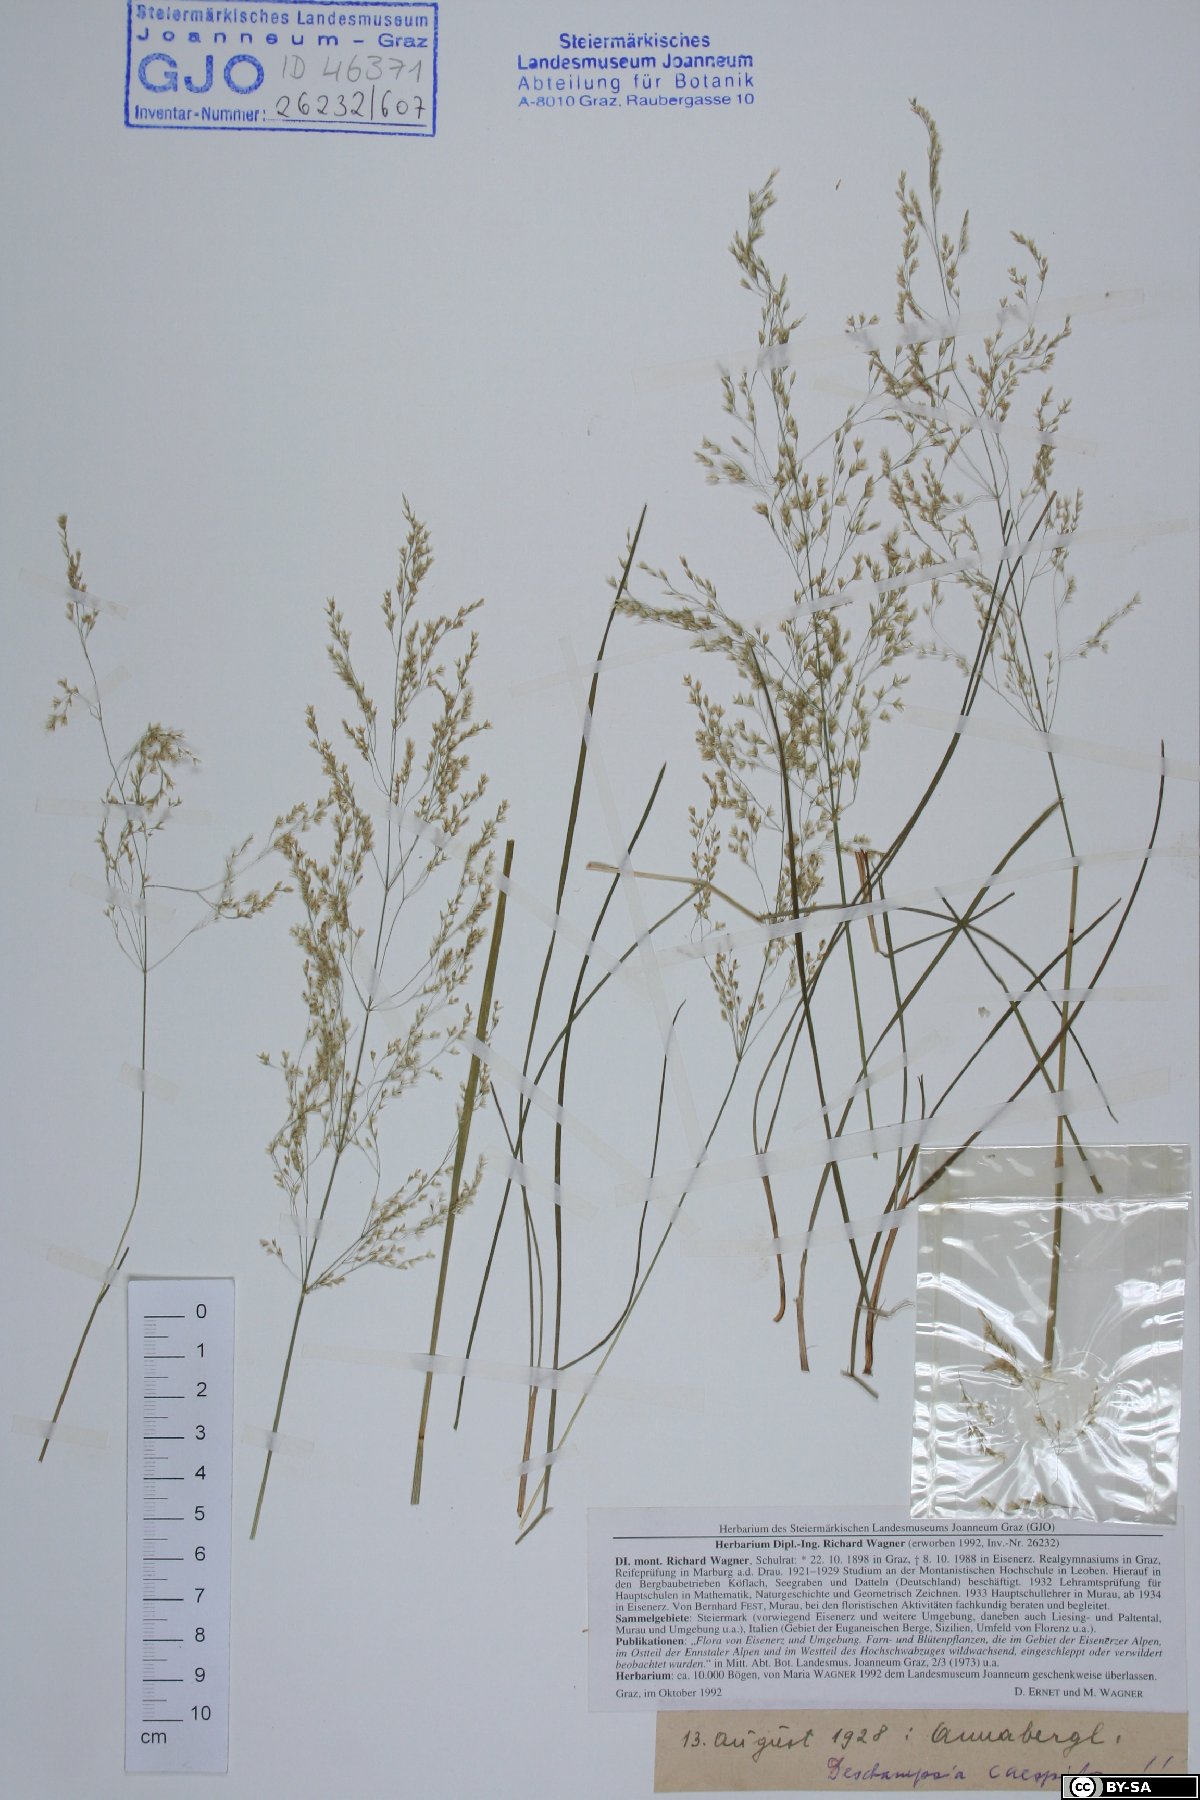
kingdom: Plantae
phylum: Tracheophyta
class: Liliopsida
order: Poales
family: Poaceae
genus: Deschampsia
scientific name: Deschampsia cespitosa
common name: Tufted hair-grass
